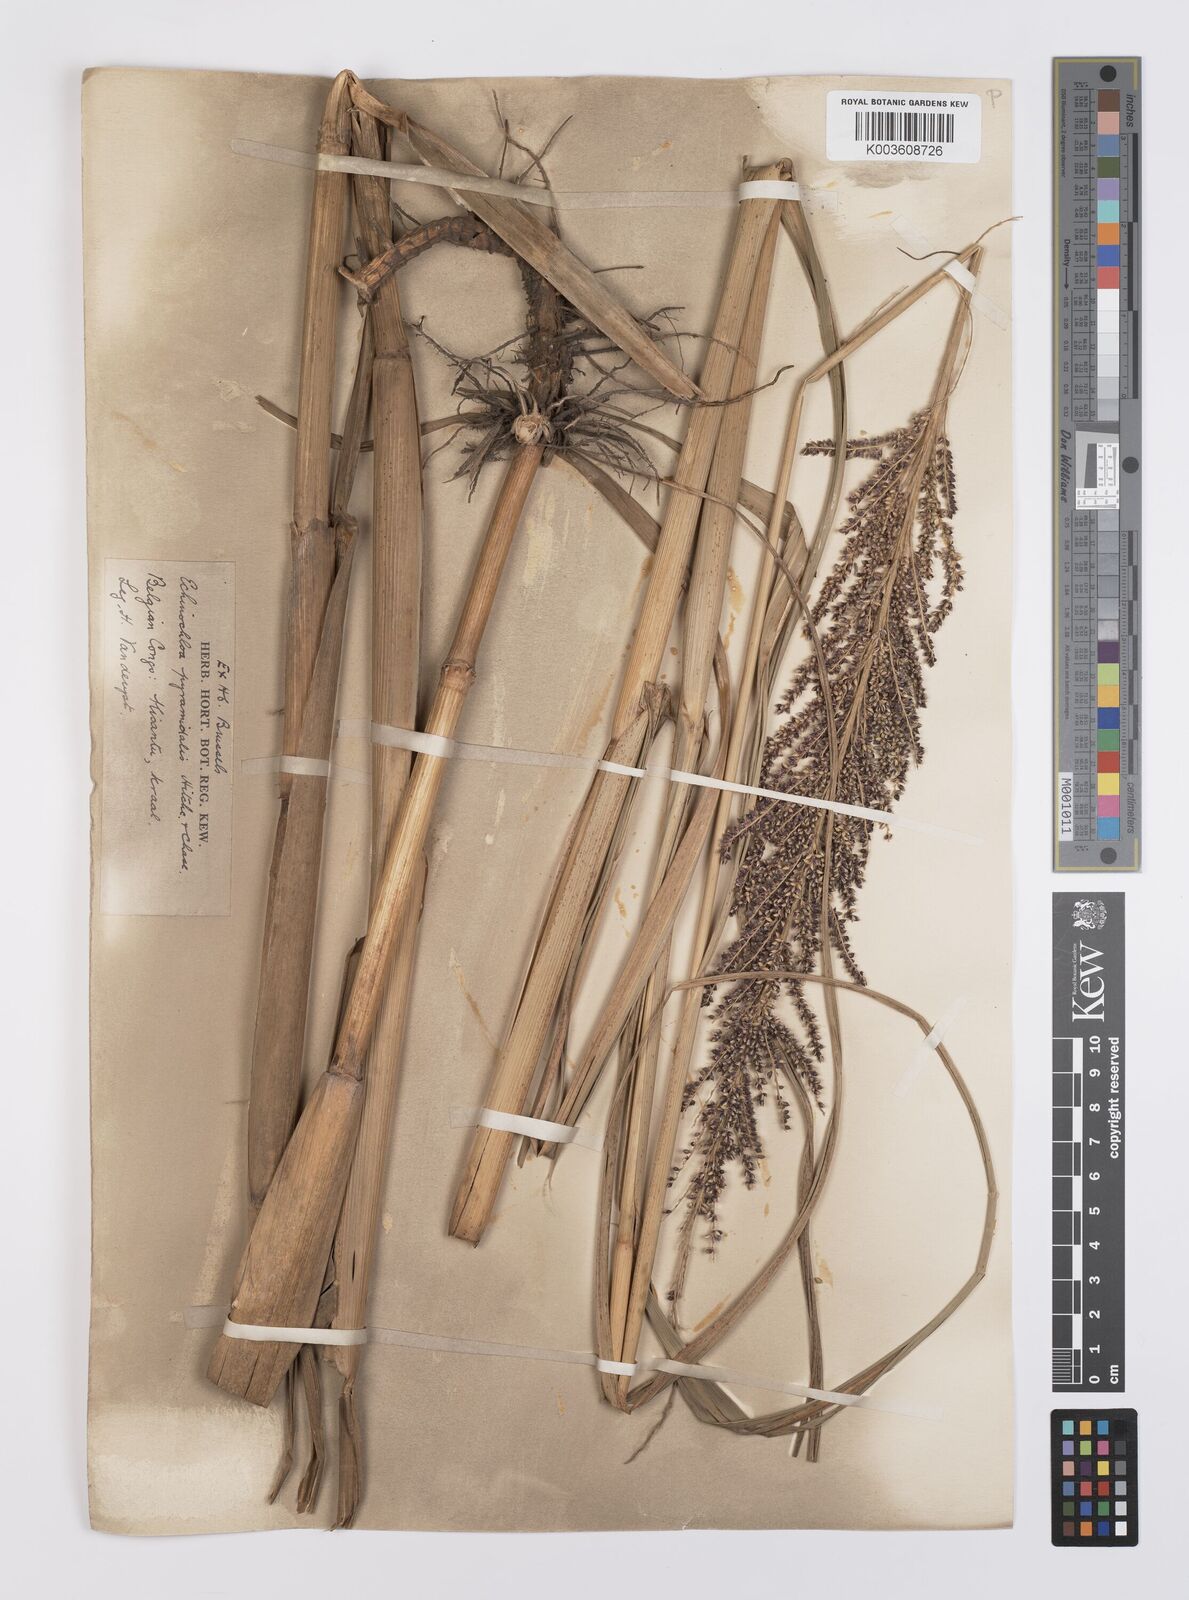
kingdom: Plantae
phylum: Tracheophyta
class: Liliopsida
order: Poales
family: Poaceae
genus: Echinochloa
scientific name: Echinochloa pyramidalis
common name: Antelope grass
